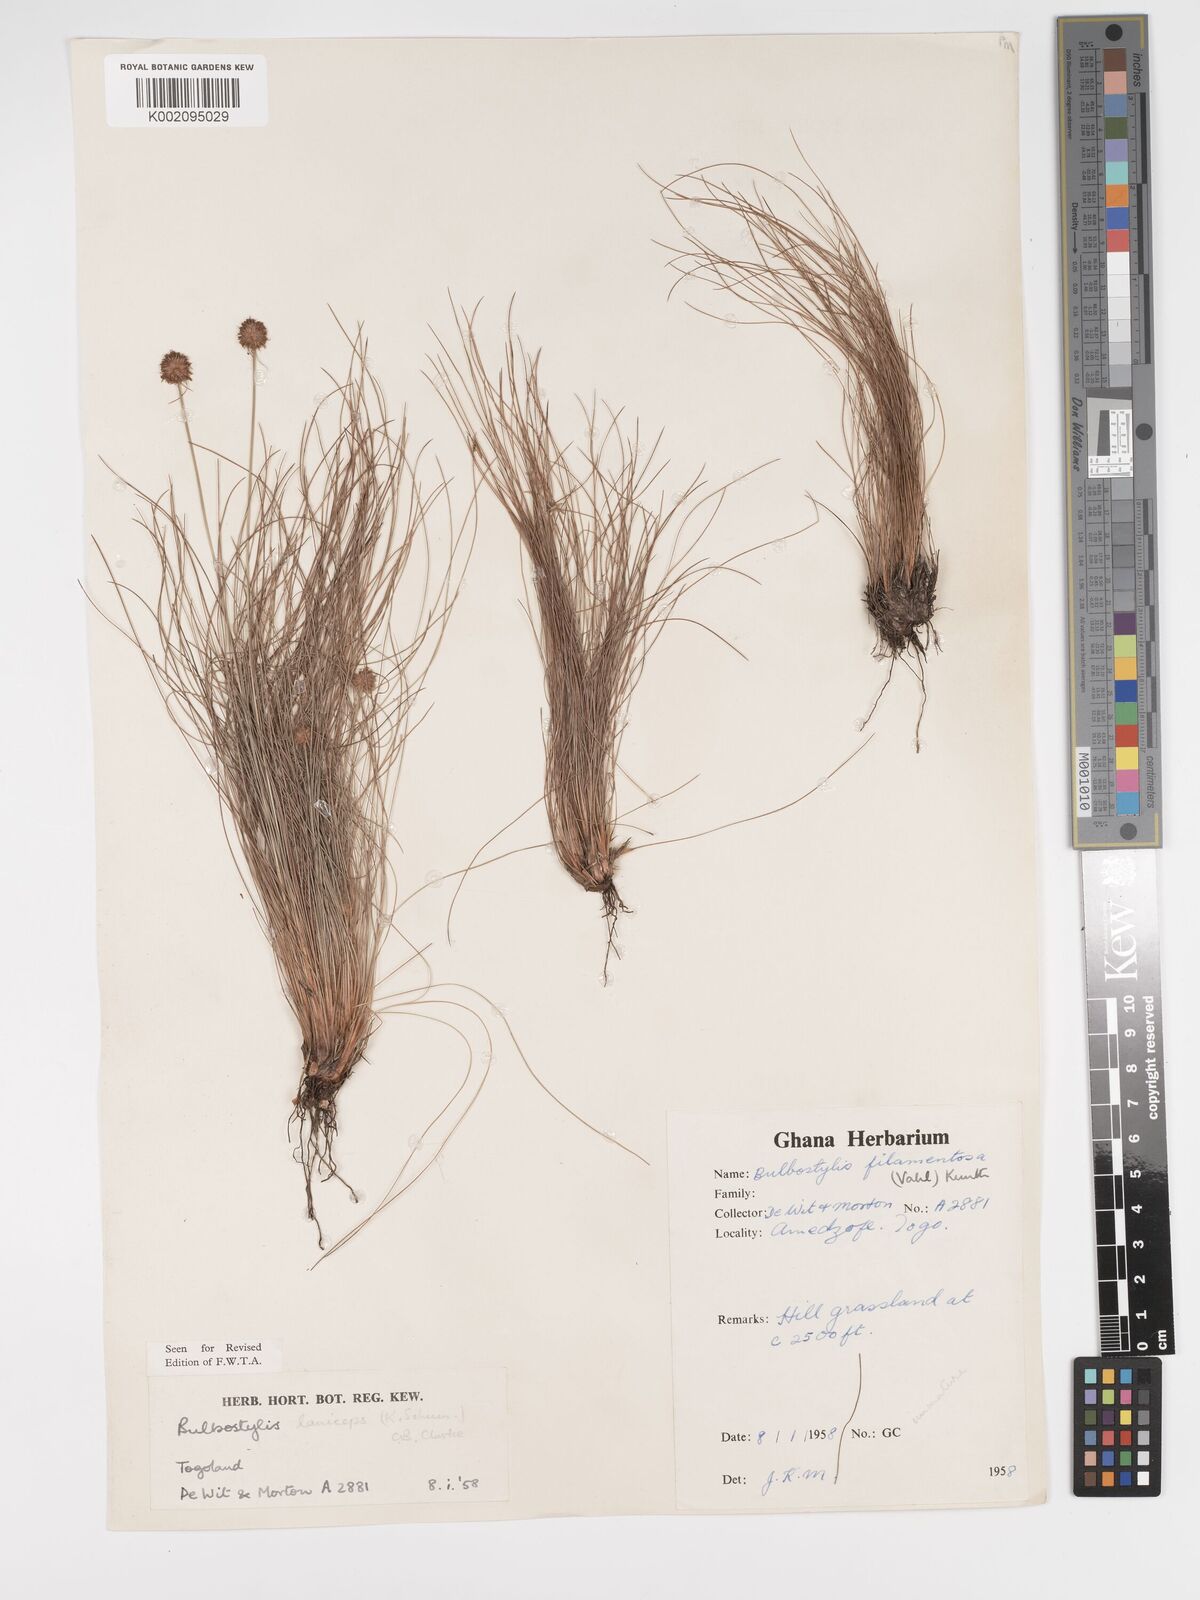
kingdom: Plantae
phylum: Tracheophyta
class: Liliopsida
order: Poales
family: Cyperaceae
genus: Bulbostylis
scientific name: Bulbostylis laniceps
